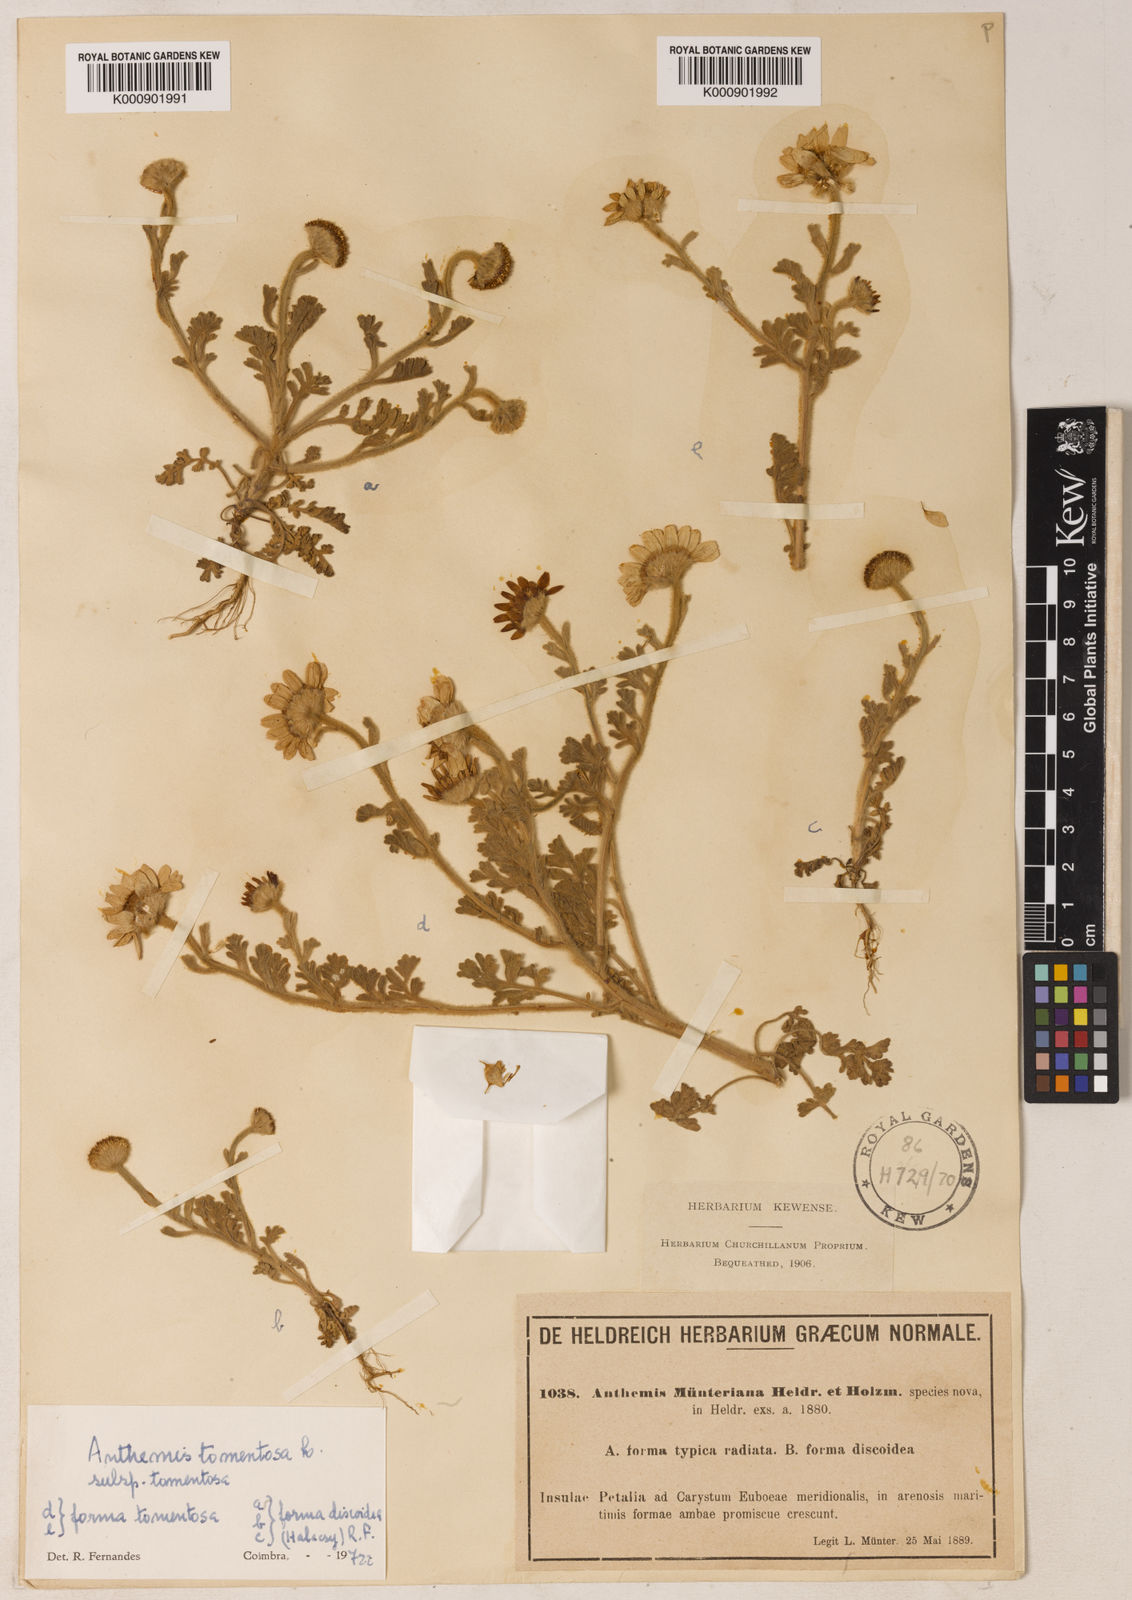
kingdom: Plantae
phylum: Tracheophyta
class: Magnoliopsida
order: Asterales
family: Asteraceae
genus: Anthemis
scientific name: Anthemis tomentosa
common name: Woolly chamomile
